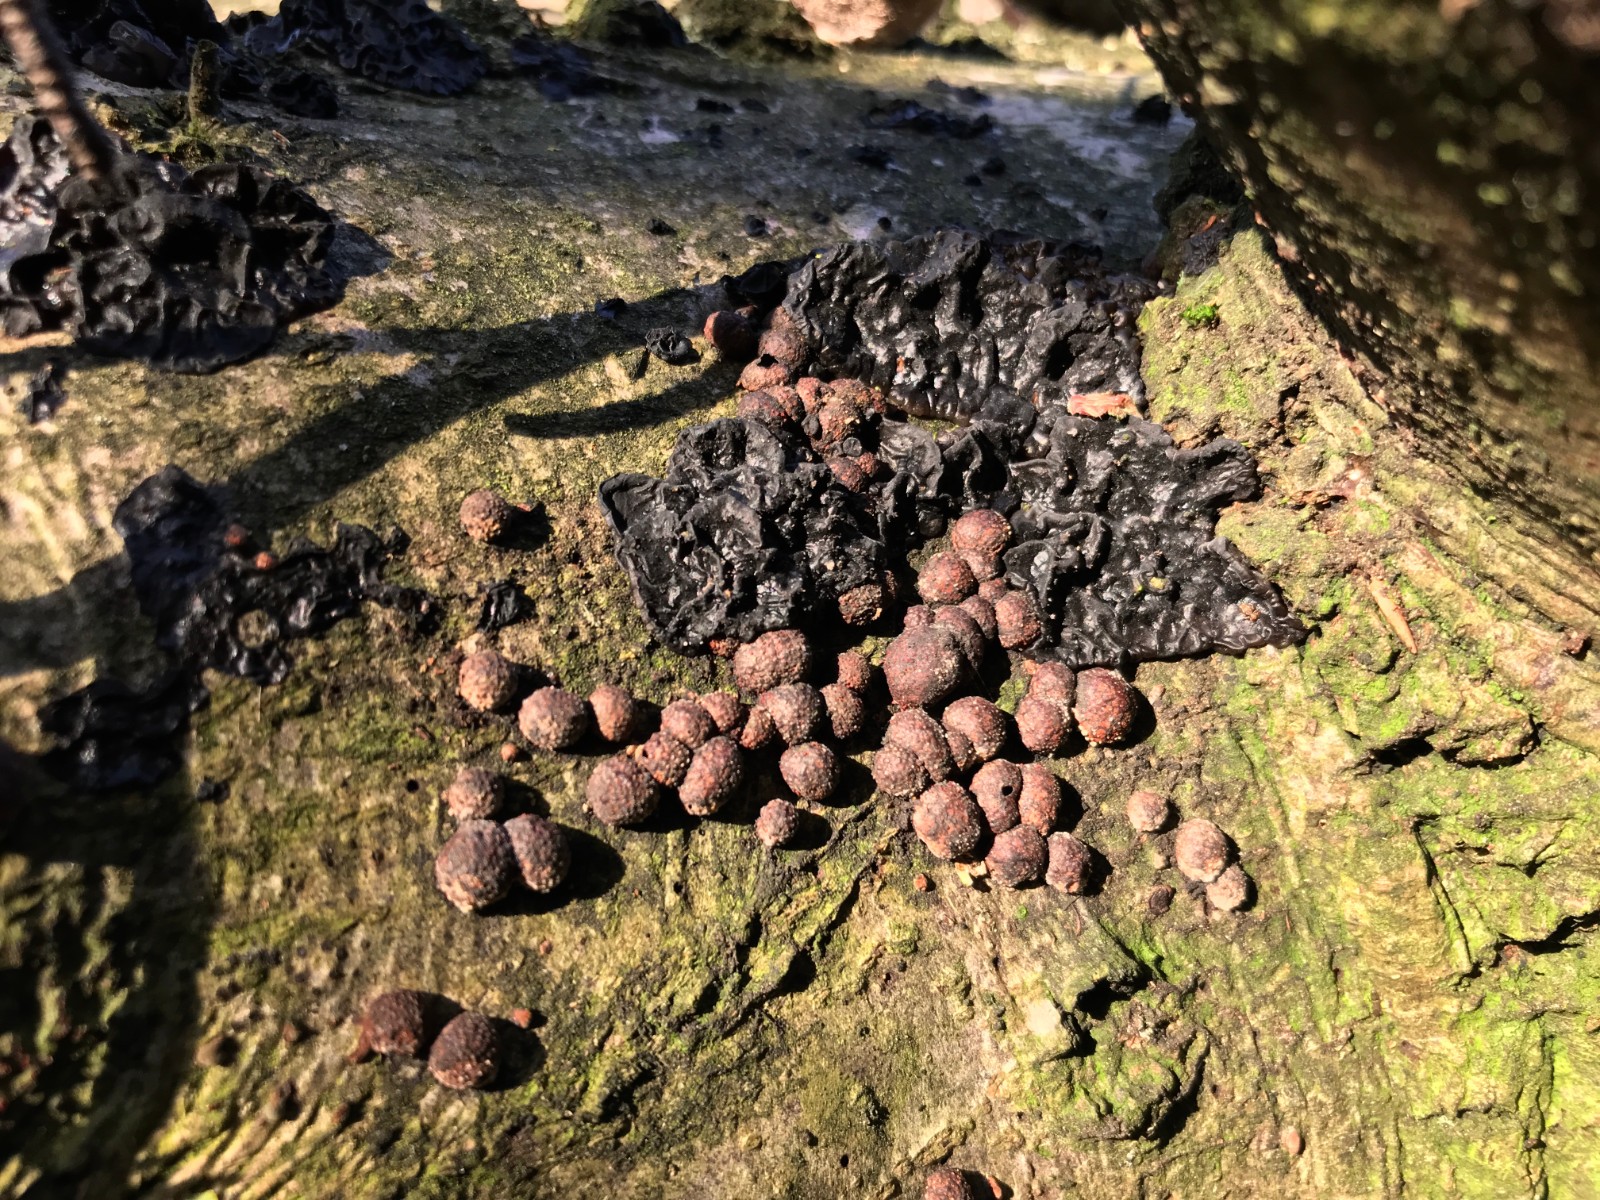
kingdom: Fungi
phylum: Ascomycota
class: Sordariomycetes
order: Xylariales
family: Hypoxylaceae
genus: Hypoxylon
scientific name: Hypoxylon fragiforme
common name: kuljordbær
